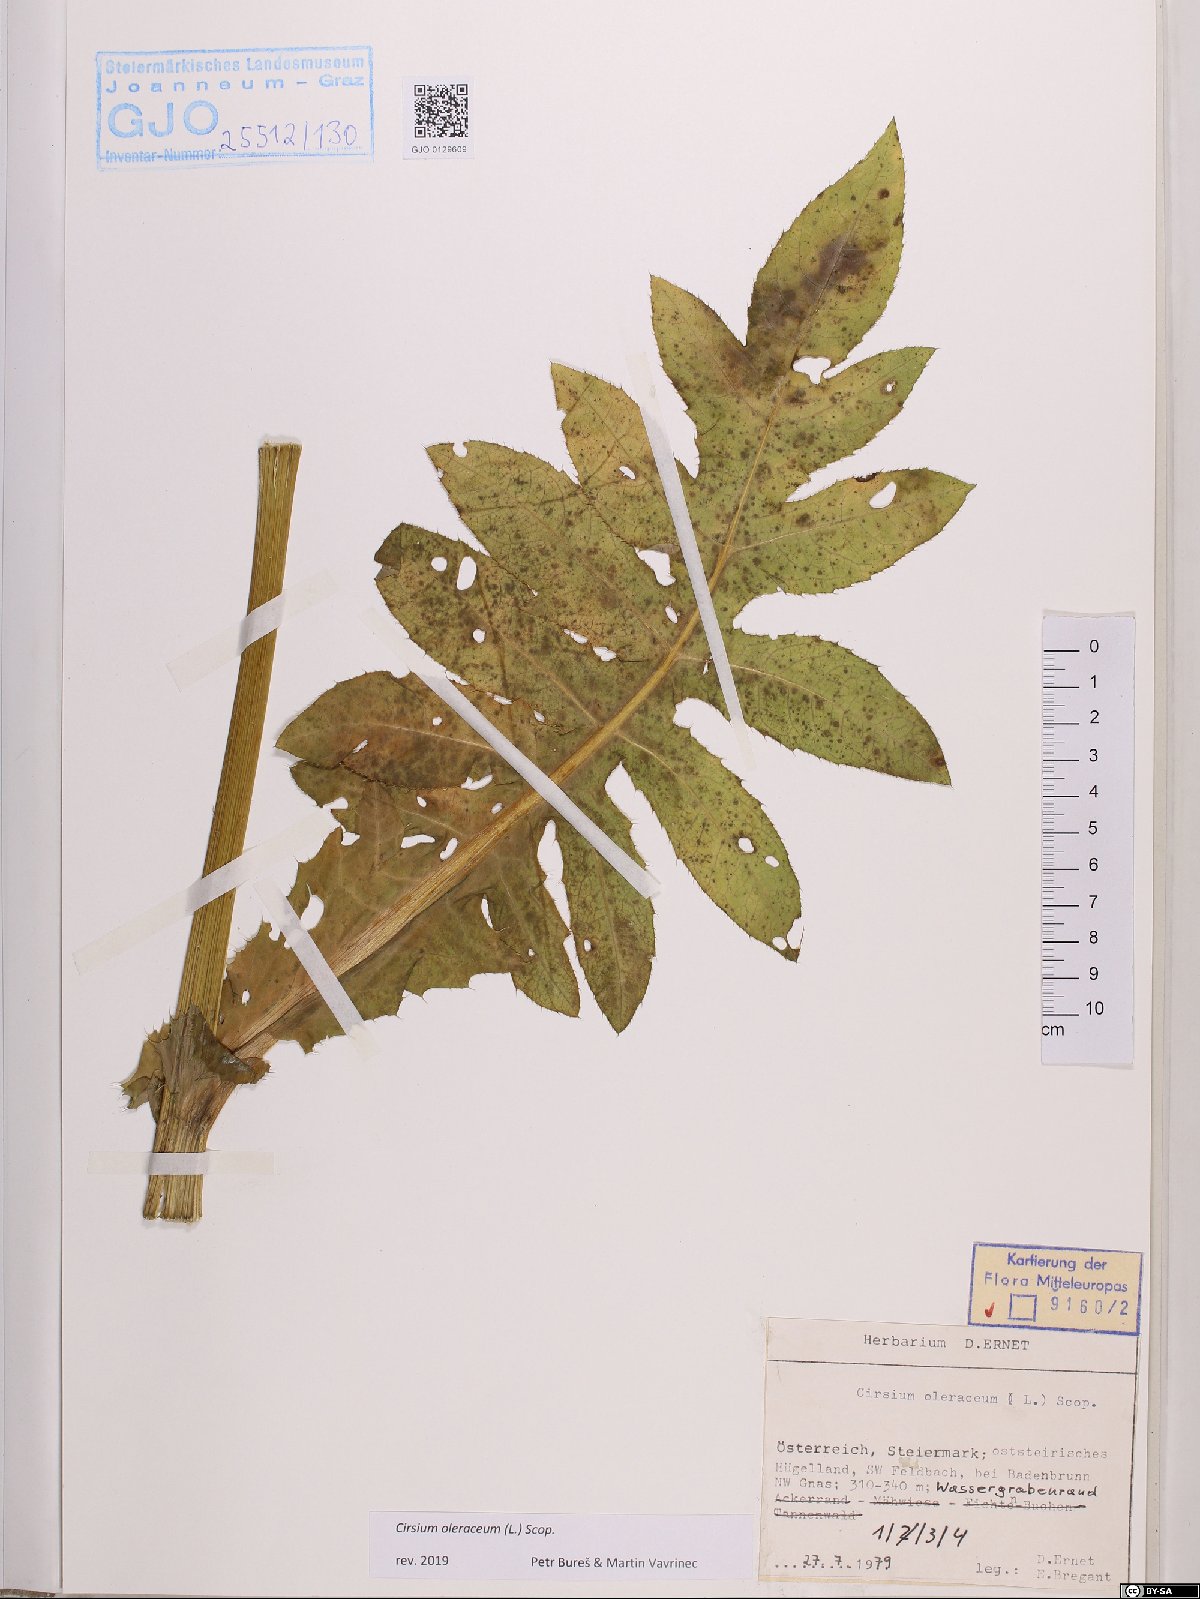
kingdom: Plantae
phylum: Tracheophyta
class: Magnoliopsida
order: Asterales
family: Asteraceae
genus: Cirsium
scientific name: Cirsium oleraceum
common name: Cabbage thistle
